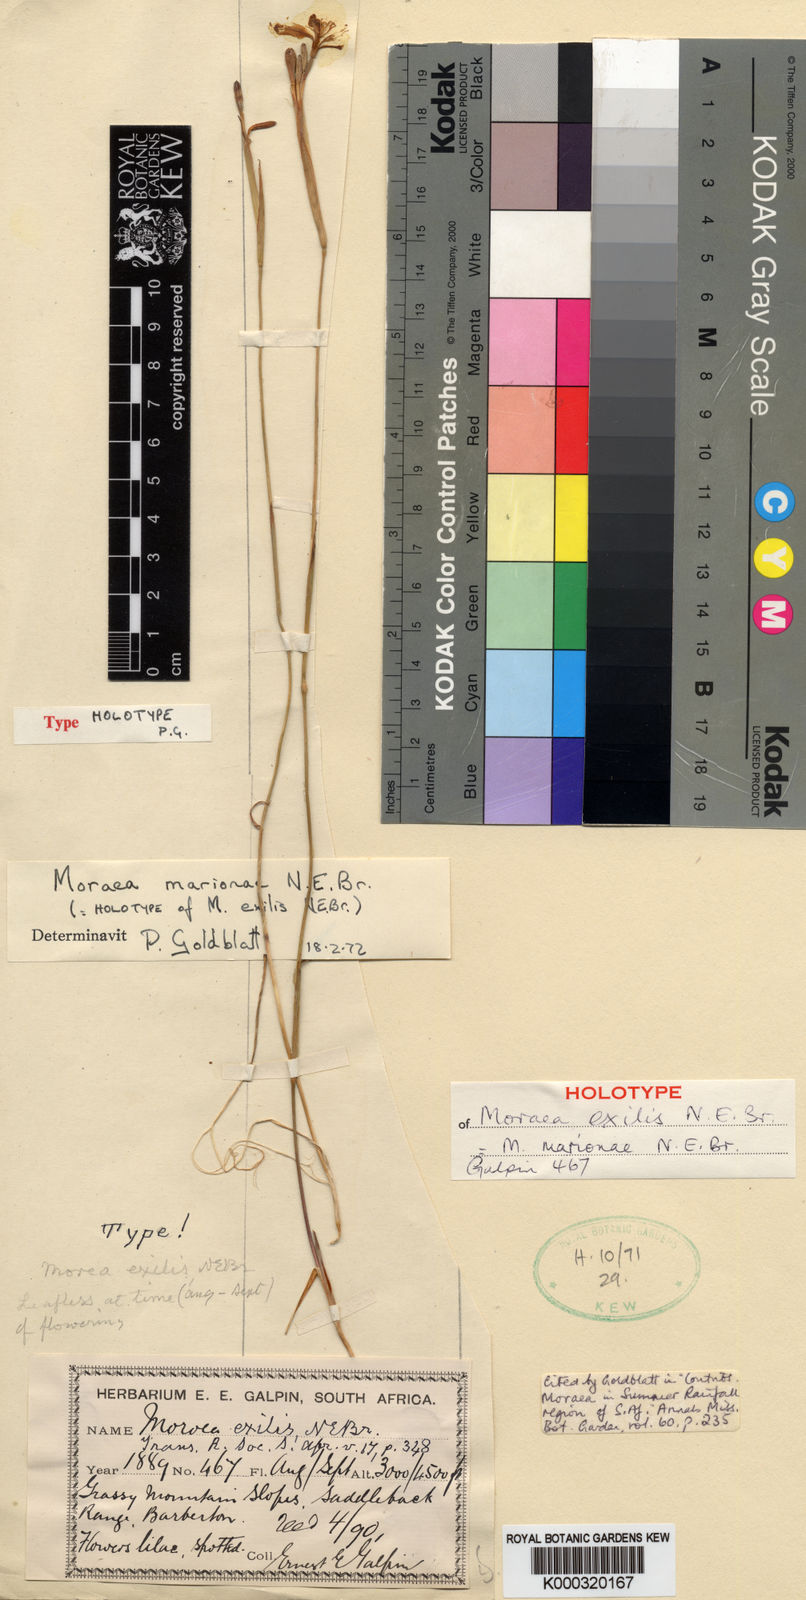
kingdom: Plantae
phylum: Tracheophyta
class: Liliopsida
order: Asparagales
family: Iridaceae
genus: Moraea
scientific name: Moraea marionae
